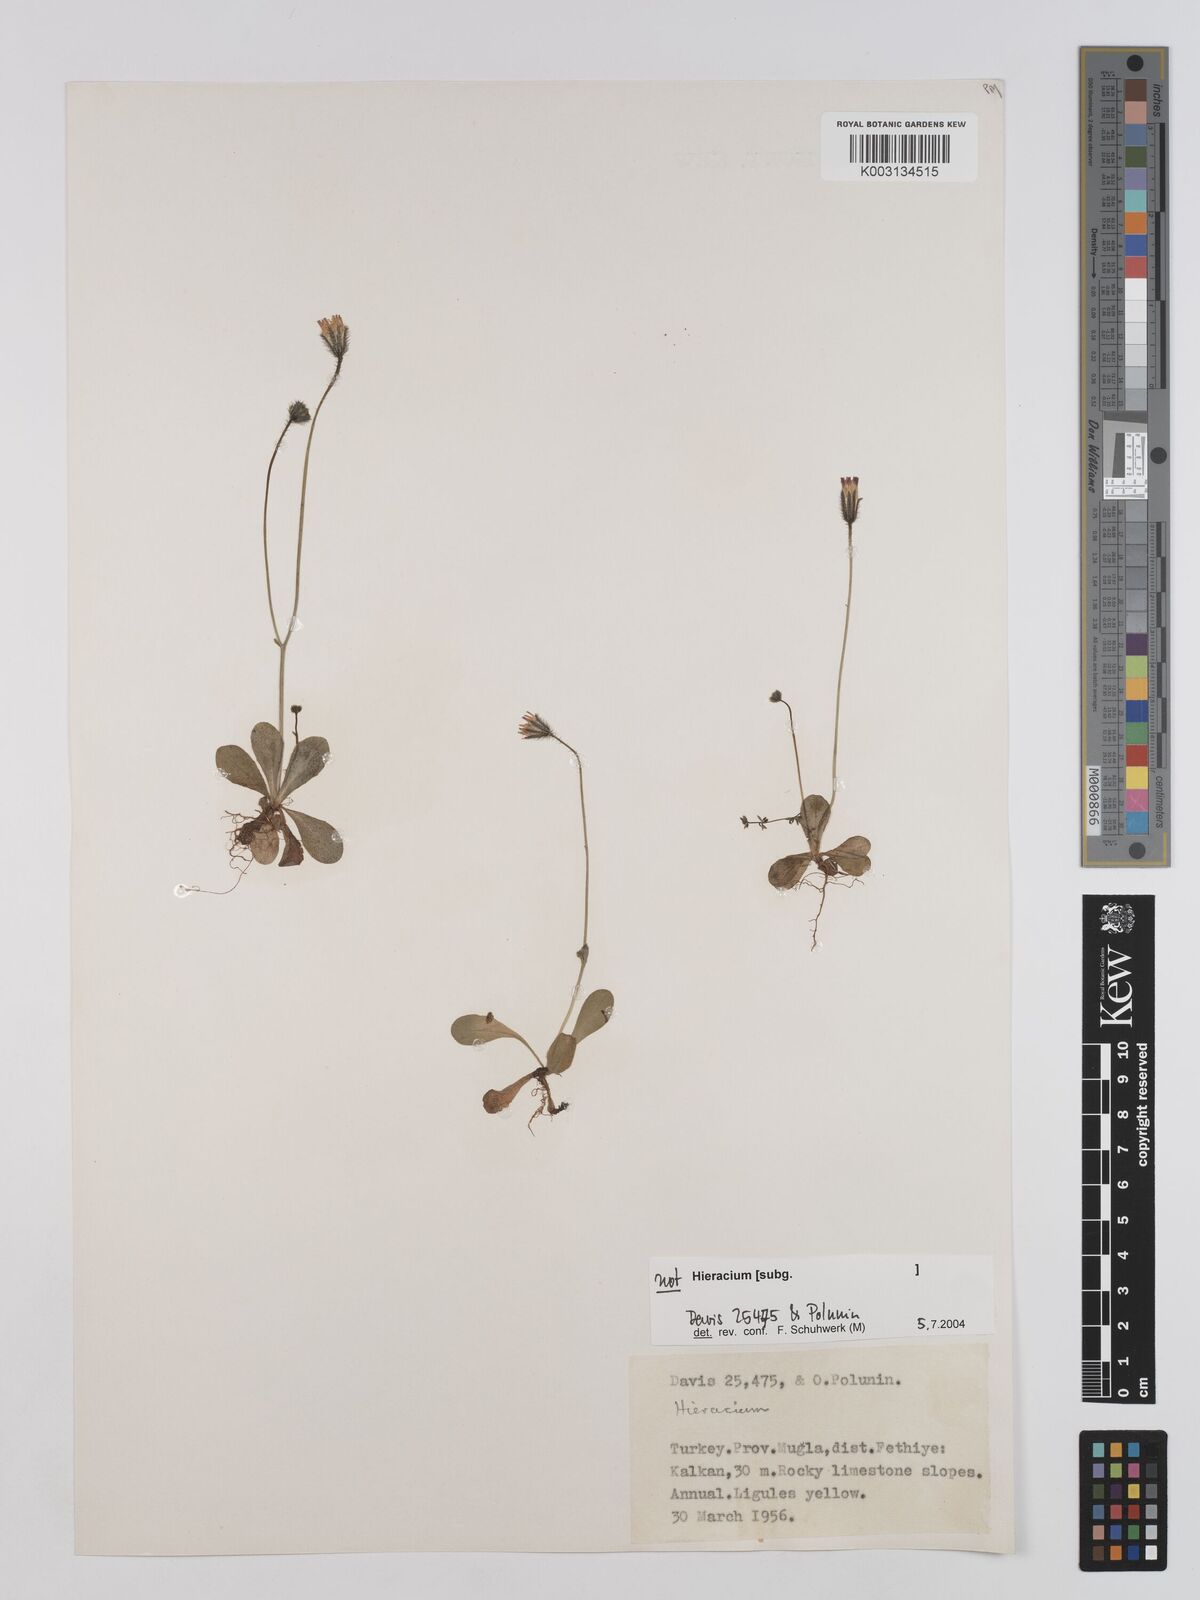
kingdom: Plantae
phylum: Tracheophyta
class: Magnoliopsida
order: Asterales
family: Asteraceae
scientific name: Asteraceae
